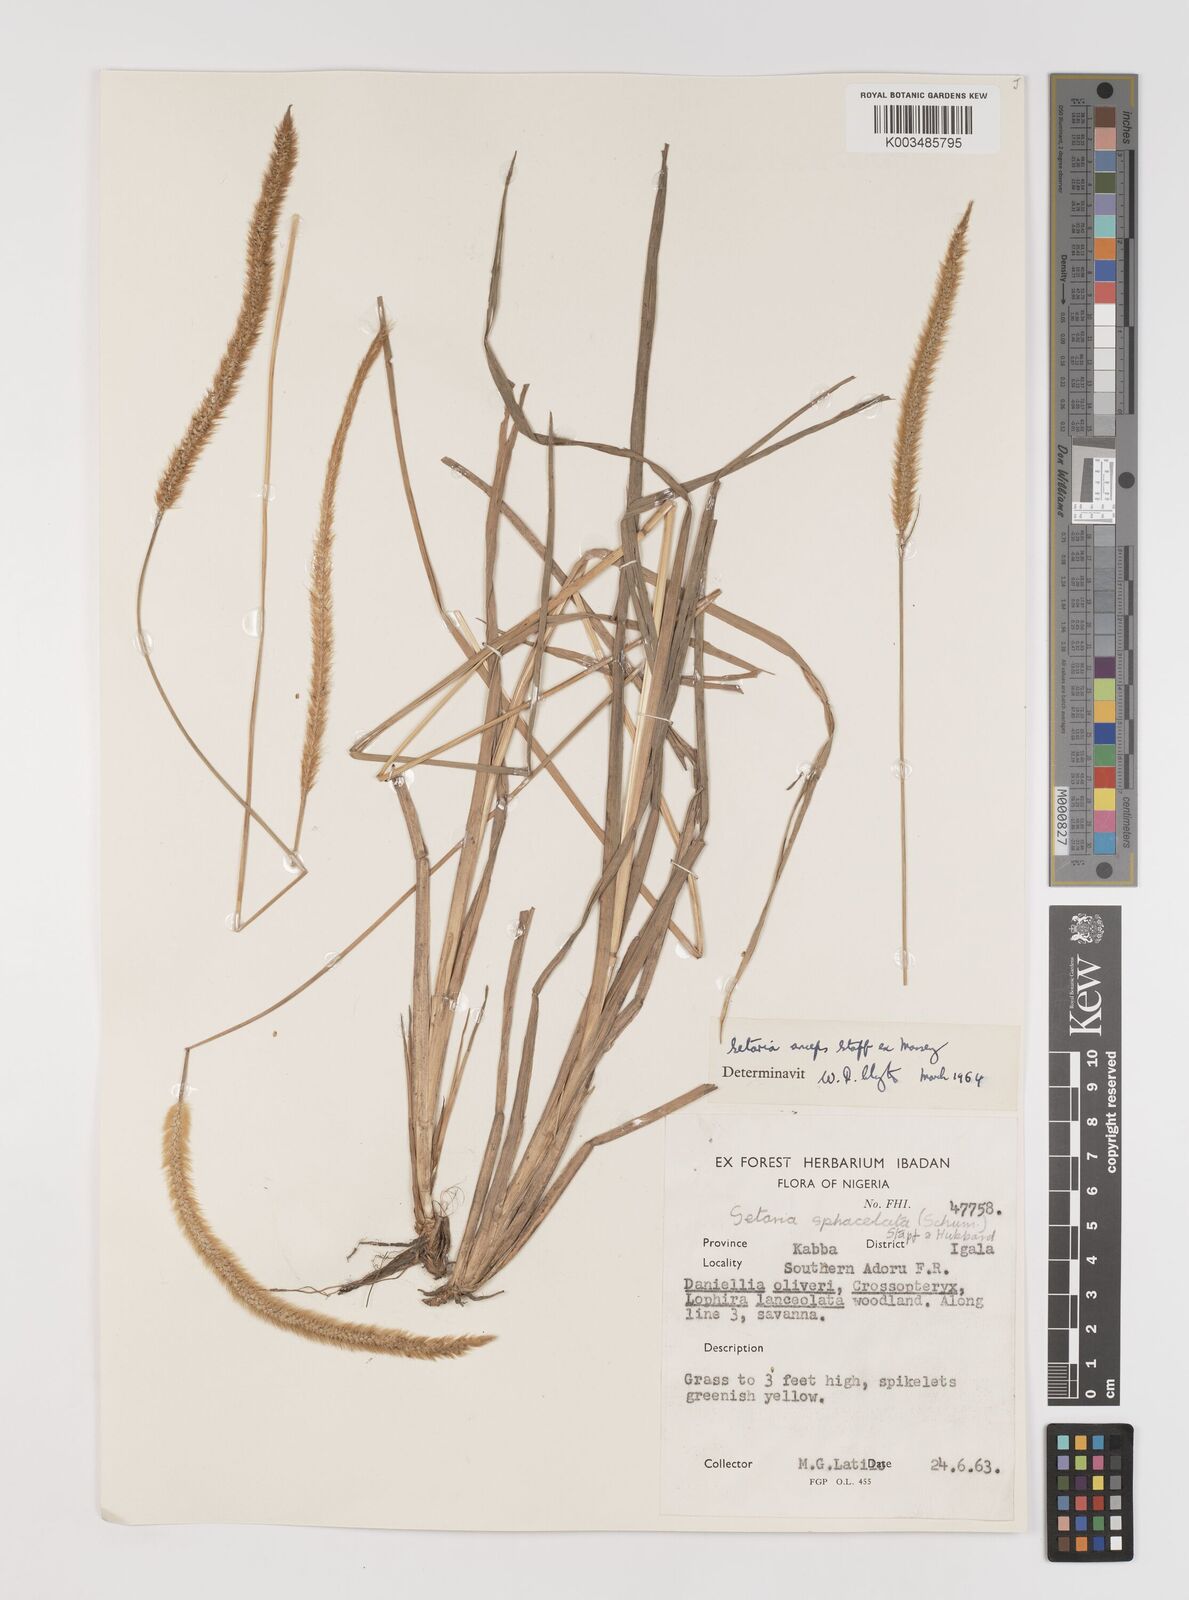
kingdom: Plantae
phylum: Tracheophyta
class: Liliopsida
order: Poales
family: Poaceae
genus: Setaria
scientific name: Setaria sphacelata
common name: African bristlegrass
